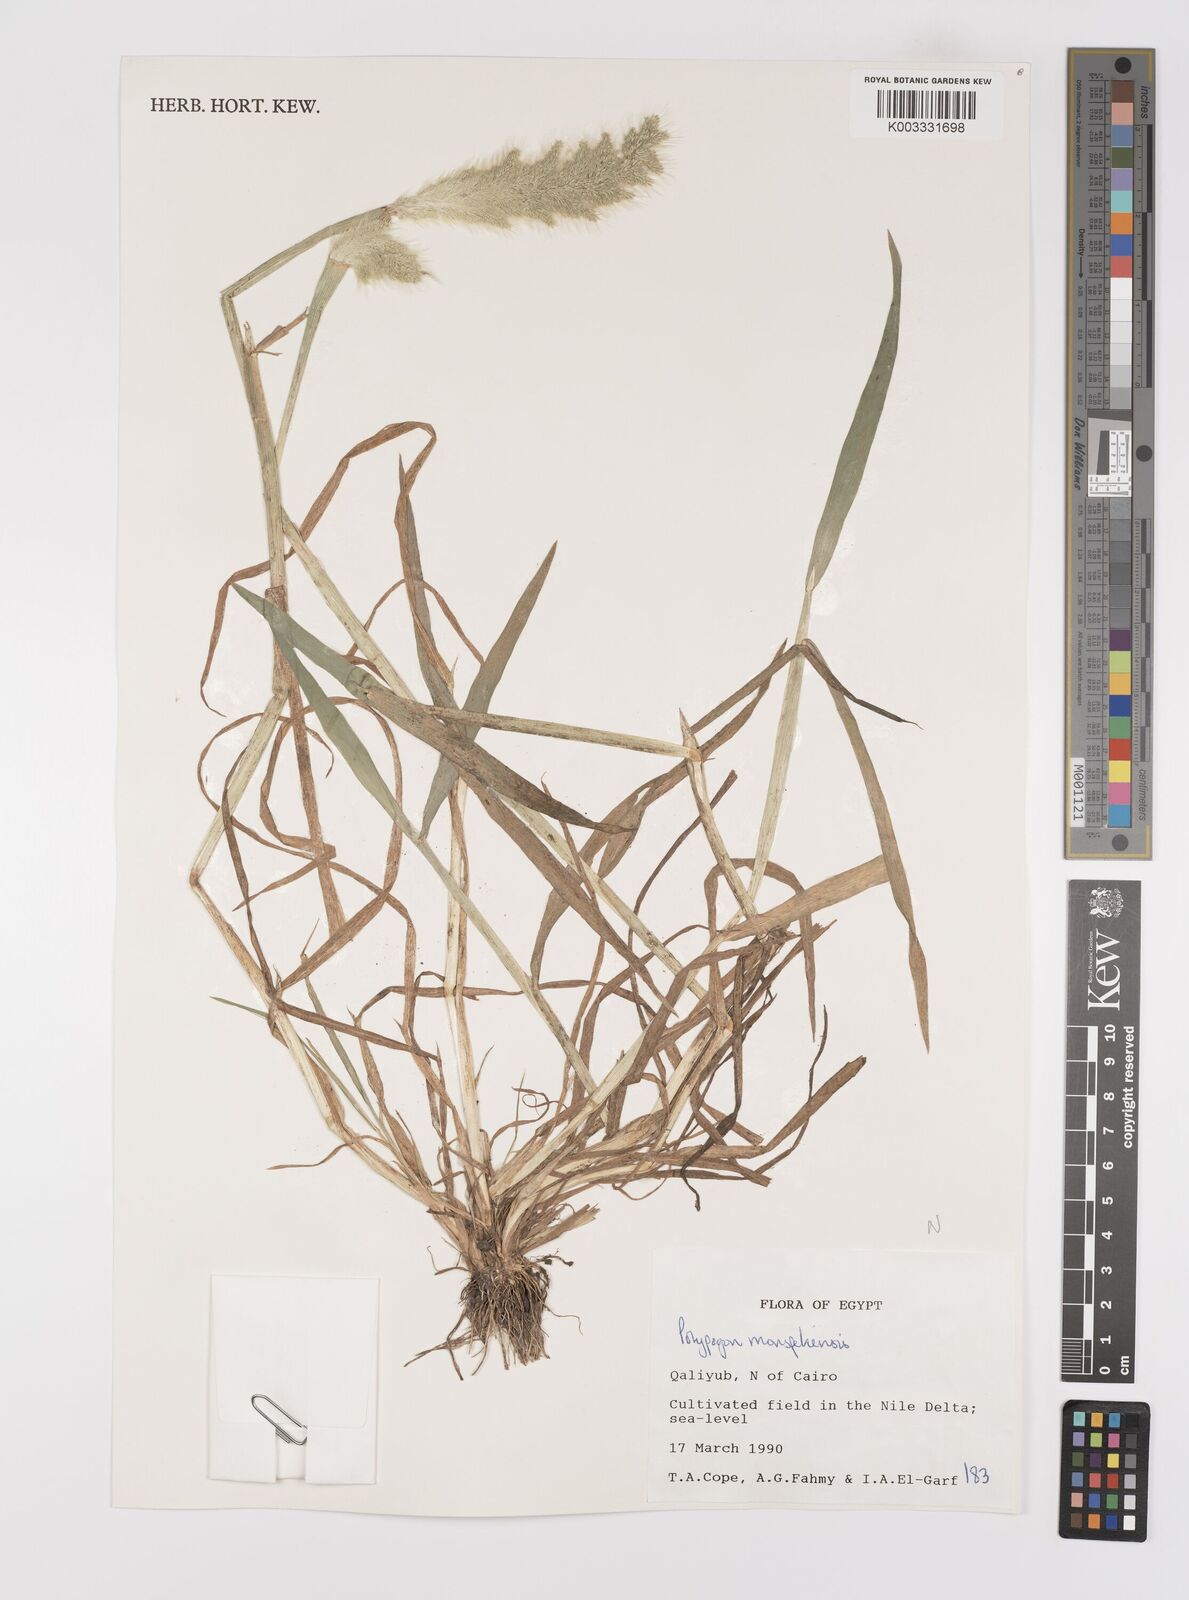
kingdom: Plantae
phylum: Tracheophyta
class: Liliopsida
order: Poales
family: Poaceae
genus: Polypogon
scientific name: Polypogon monspeliensis
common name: Annual rabbitsfoot grass
